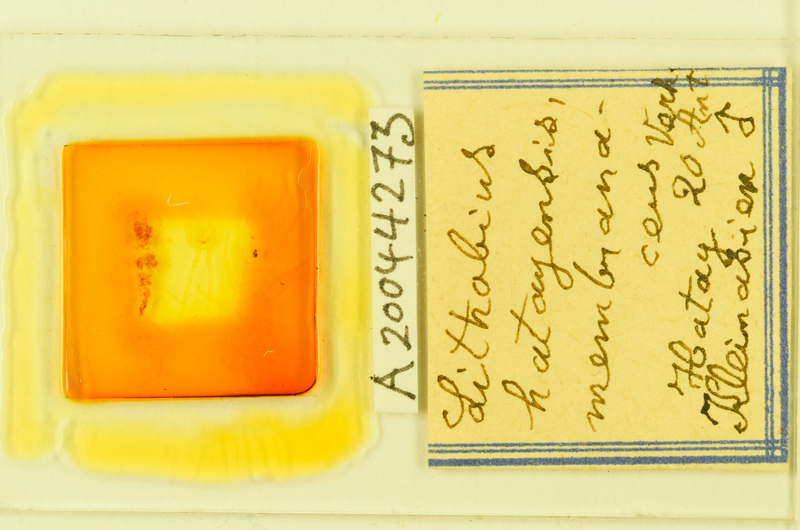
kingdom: Animalia
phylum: Arthropoda
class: Chilopoda
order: Lithobiomorpha
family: Lithobiidae
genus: Hessebius
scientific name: Hessebius barbipes
